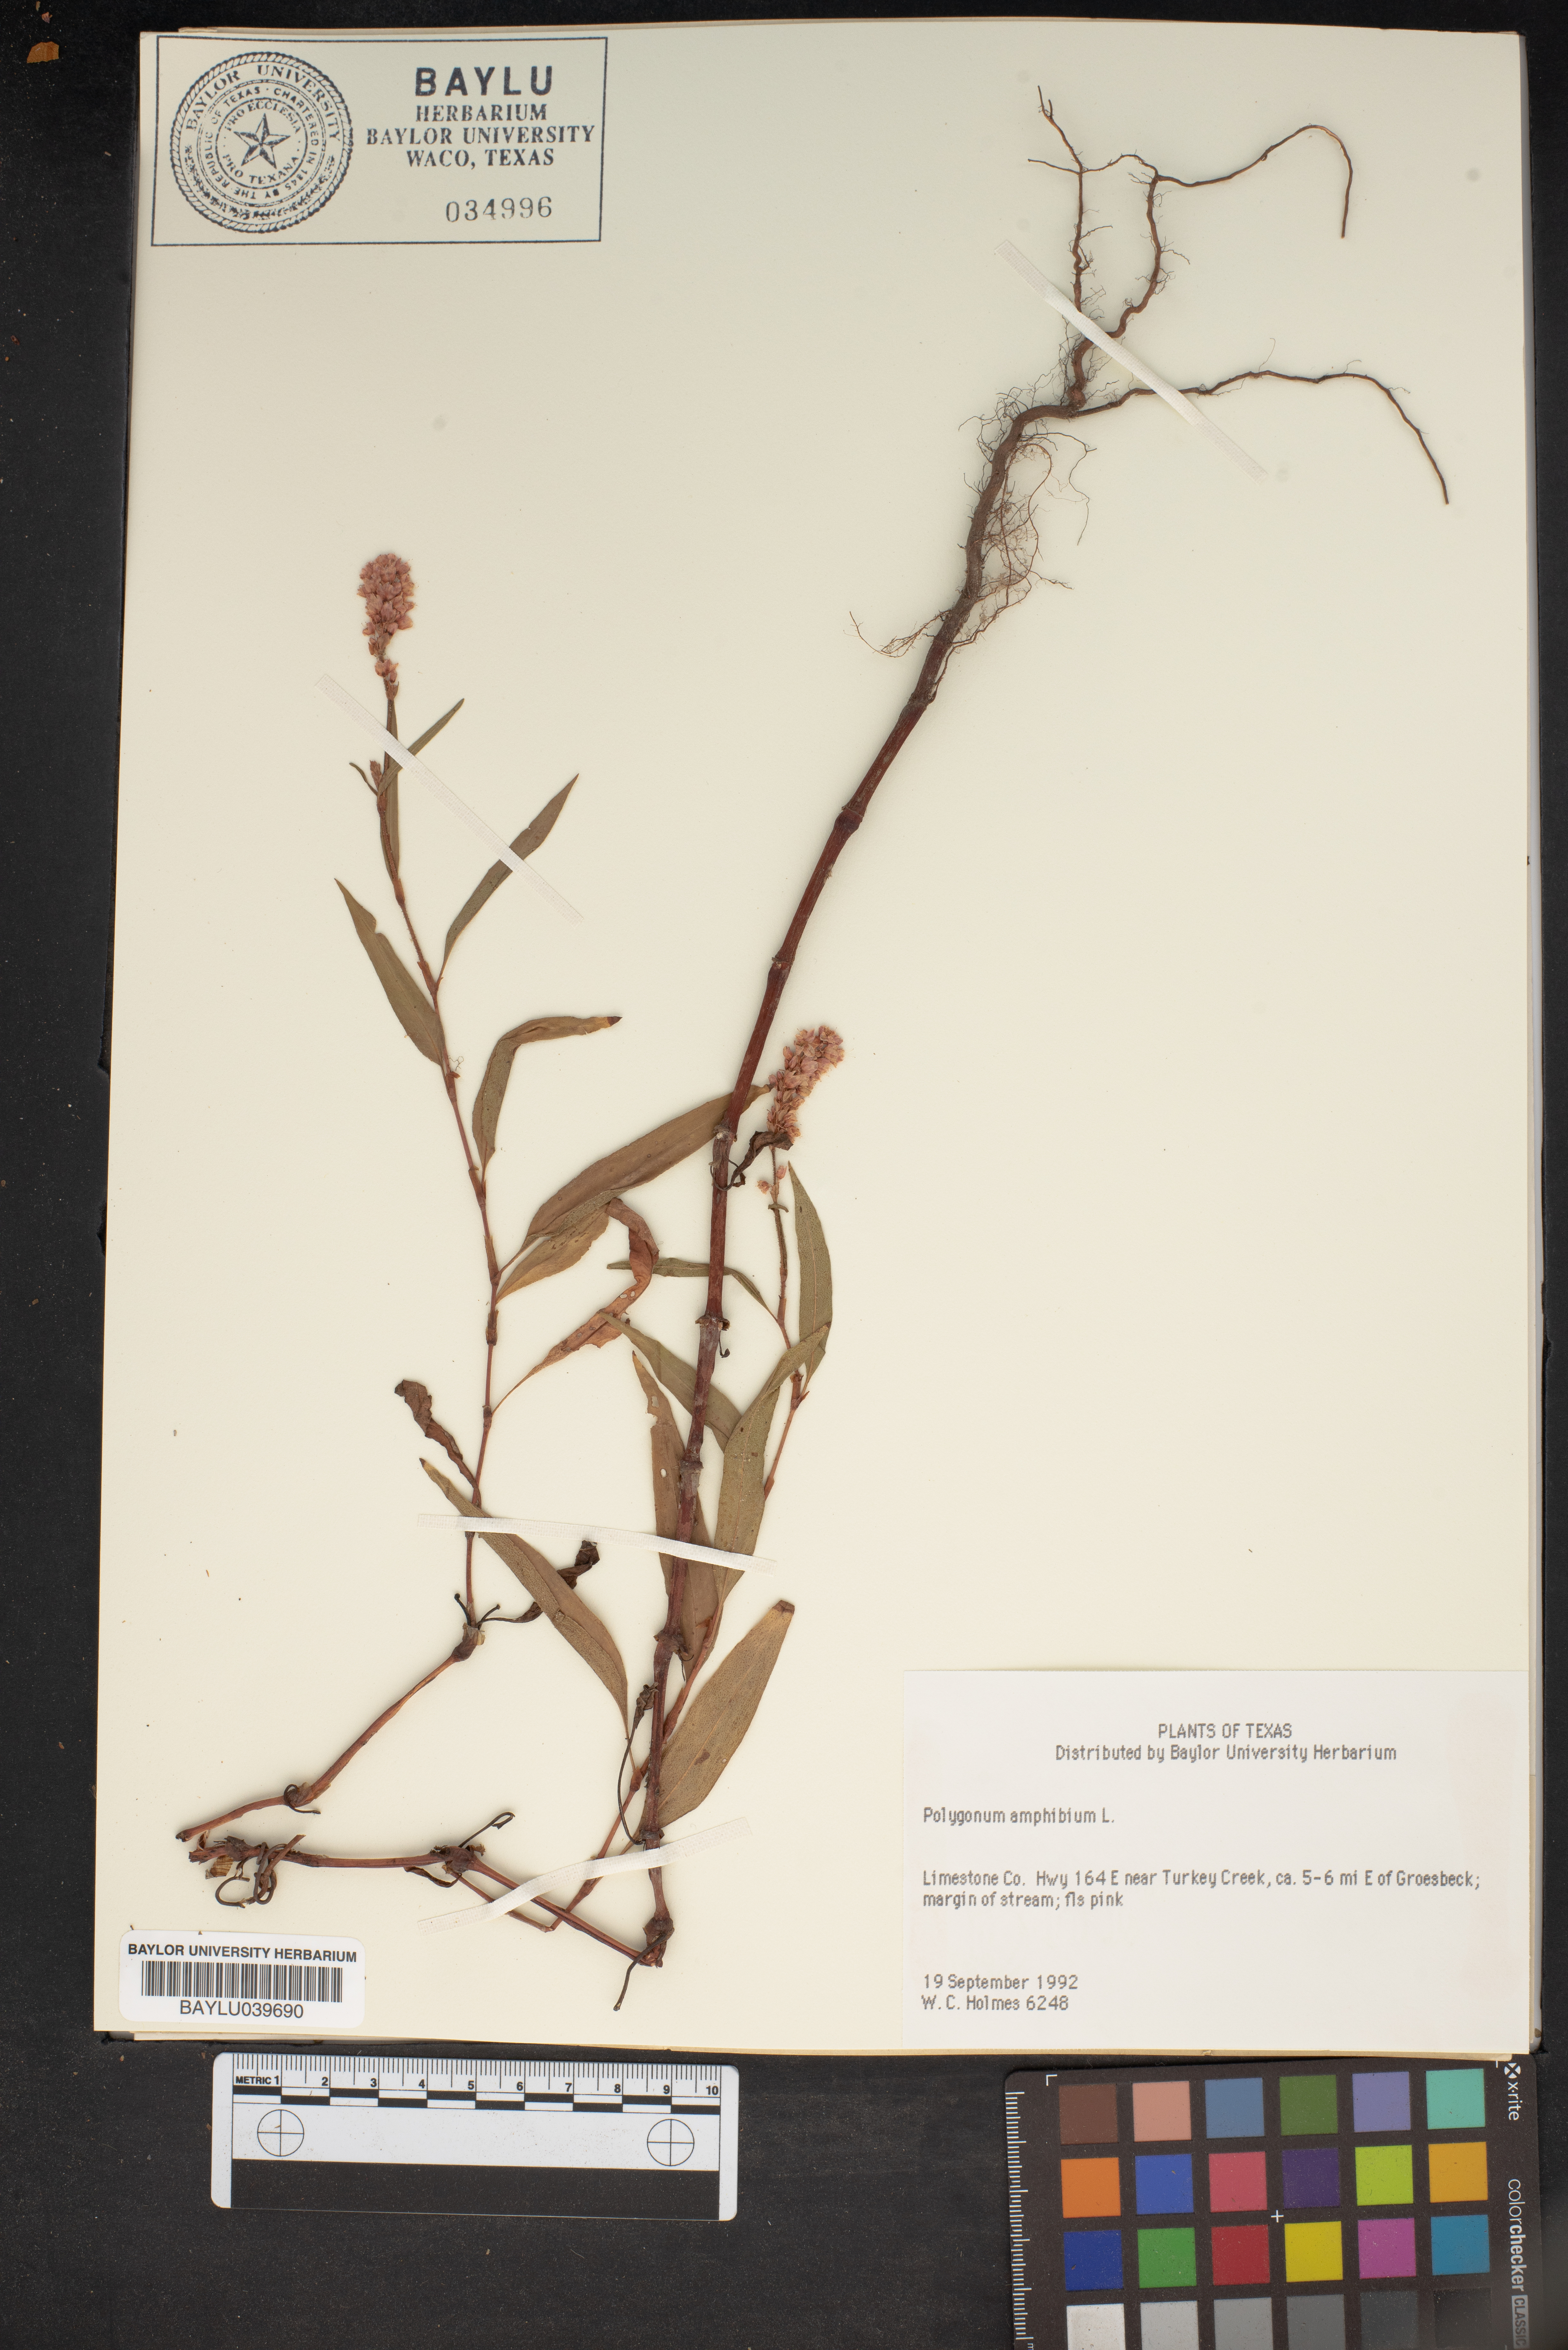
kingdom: Plantae
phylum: Tracheophyta
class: Magnoliopsida
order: Caryophyllales
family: Polygonaceae
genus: Persicaria
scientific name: Persicaria amphibia
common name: Amphibious bistort
